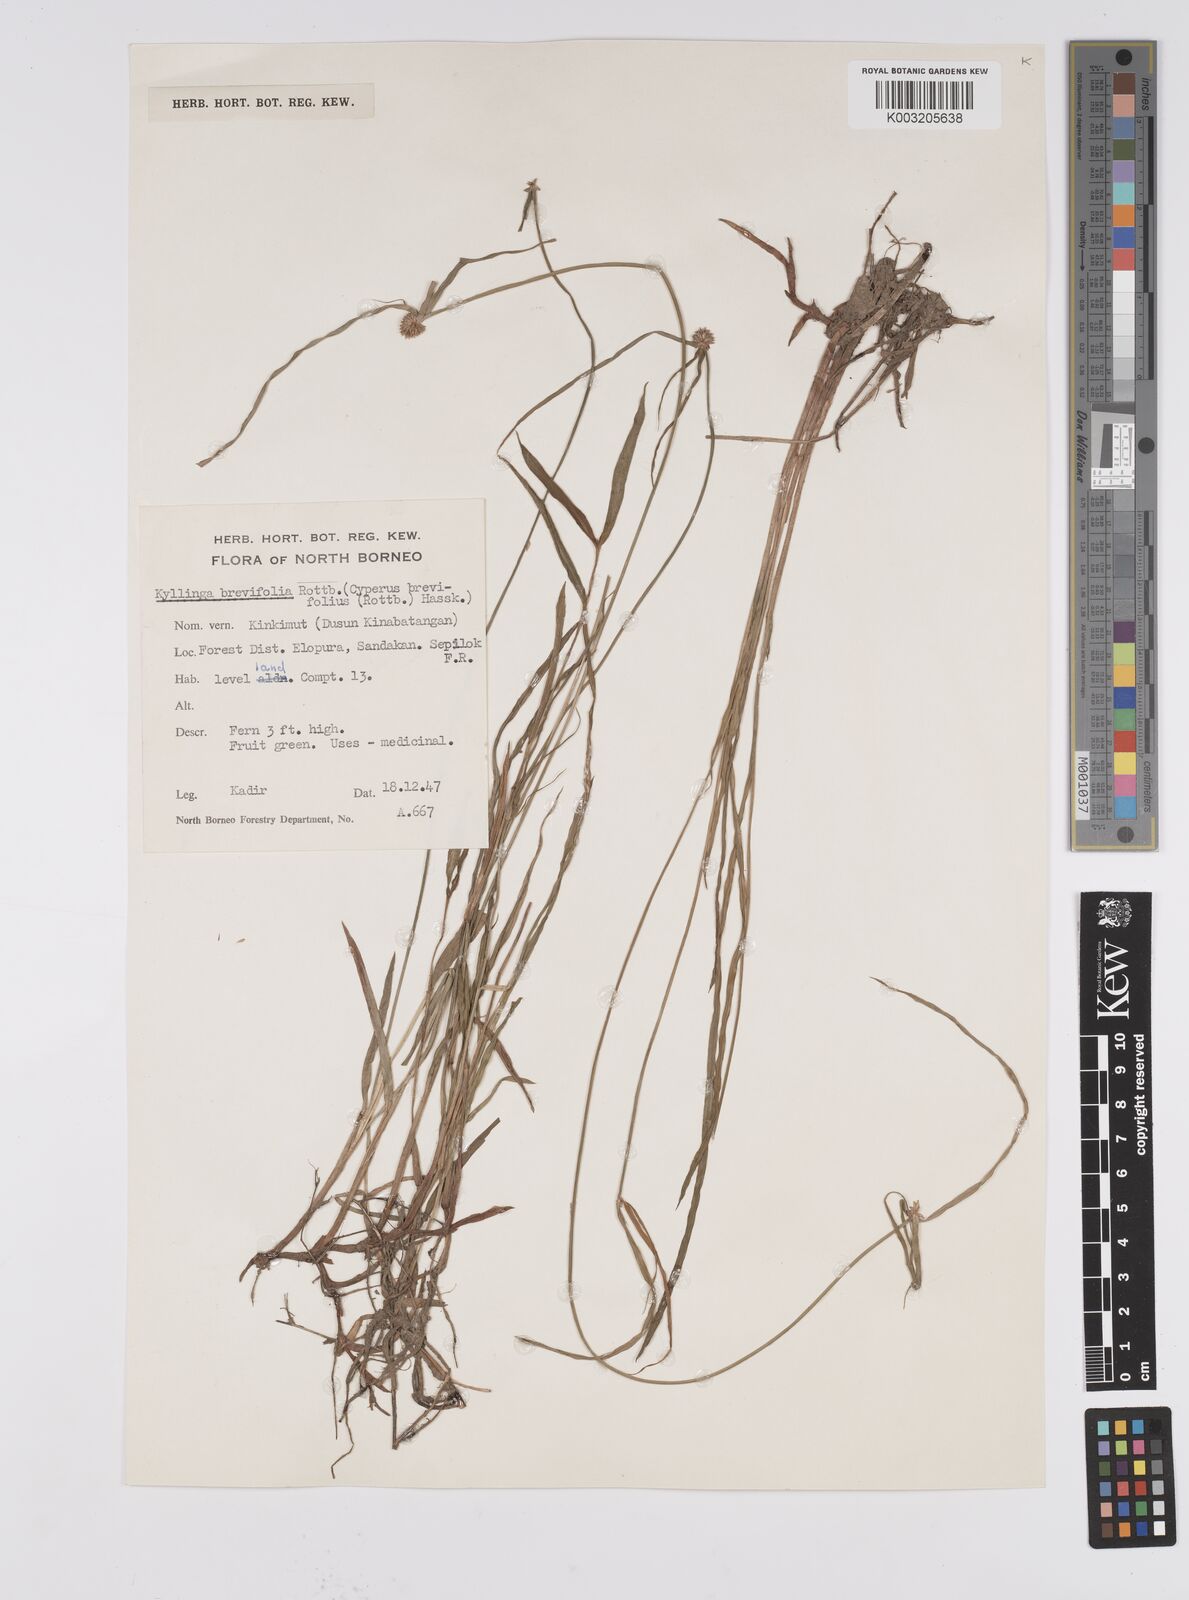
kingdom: Plantae
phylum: Tracheophyta
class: Liliopsida
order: Poales
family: Cyperaceae
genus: Cyperus
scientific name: Cyperus brevifolius
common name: Globe kyllinga
